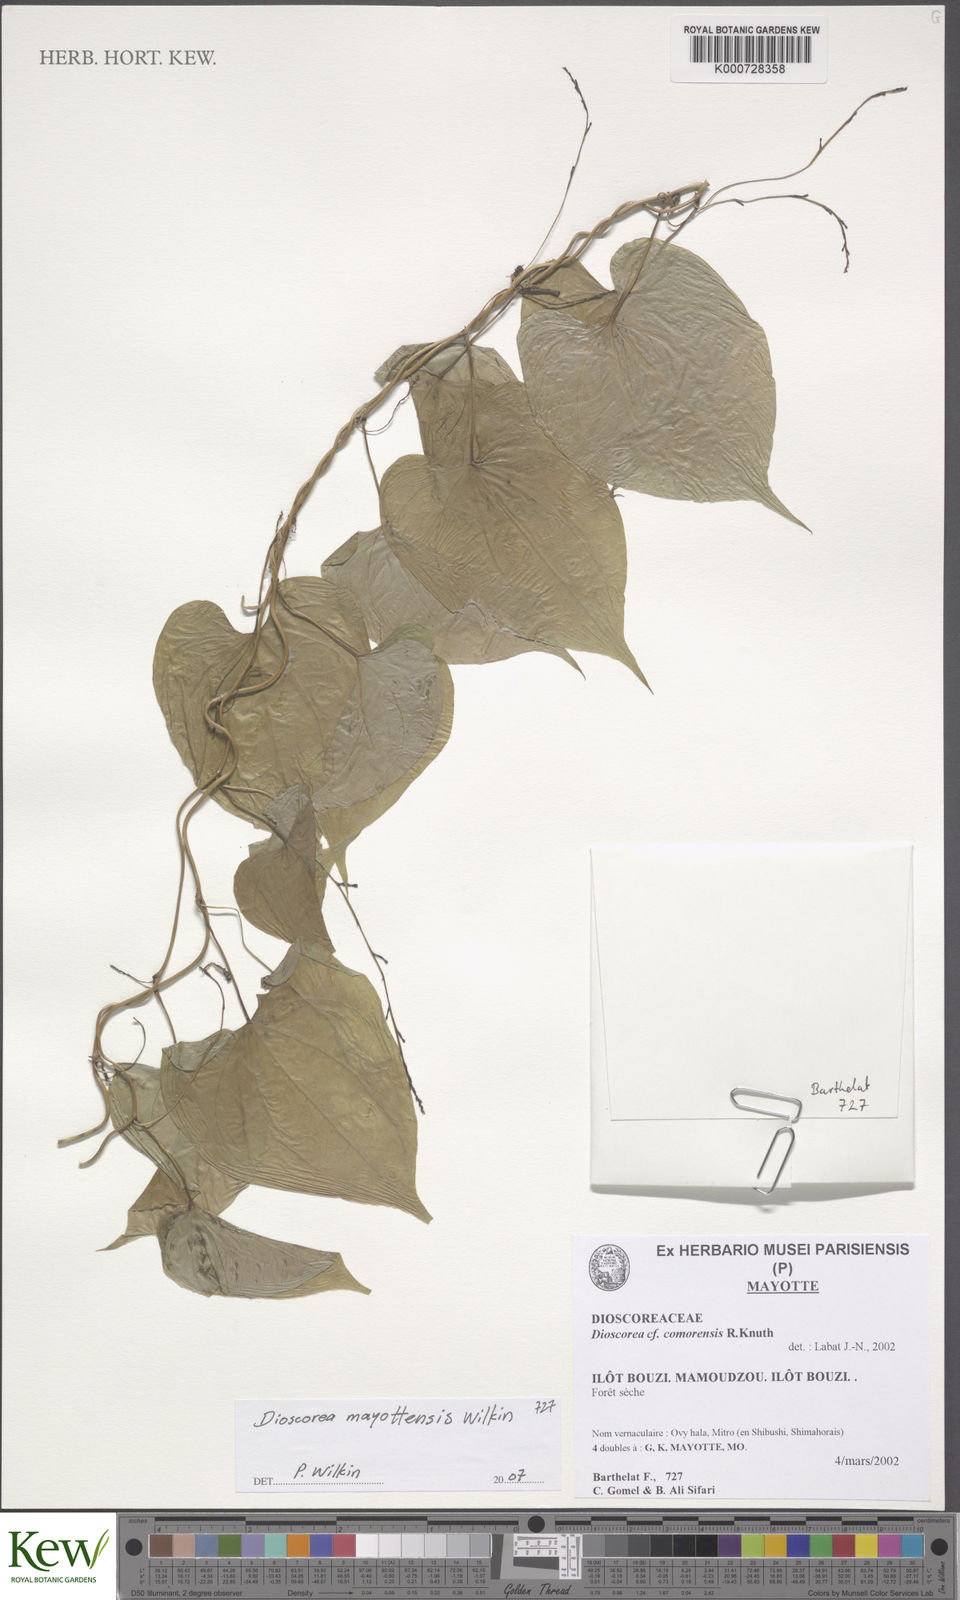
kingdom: Plantae
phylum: Tracheophyta
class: Liliopsida
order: Dioscoreales
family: Dioscoreaceae
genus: Dioscorea
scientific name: Dioscorea mayottensis
